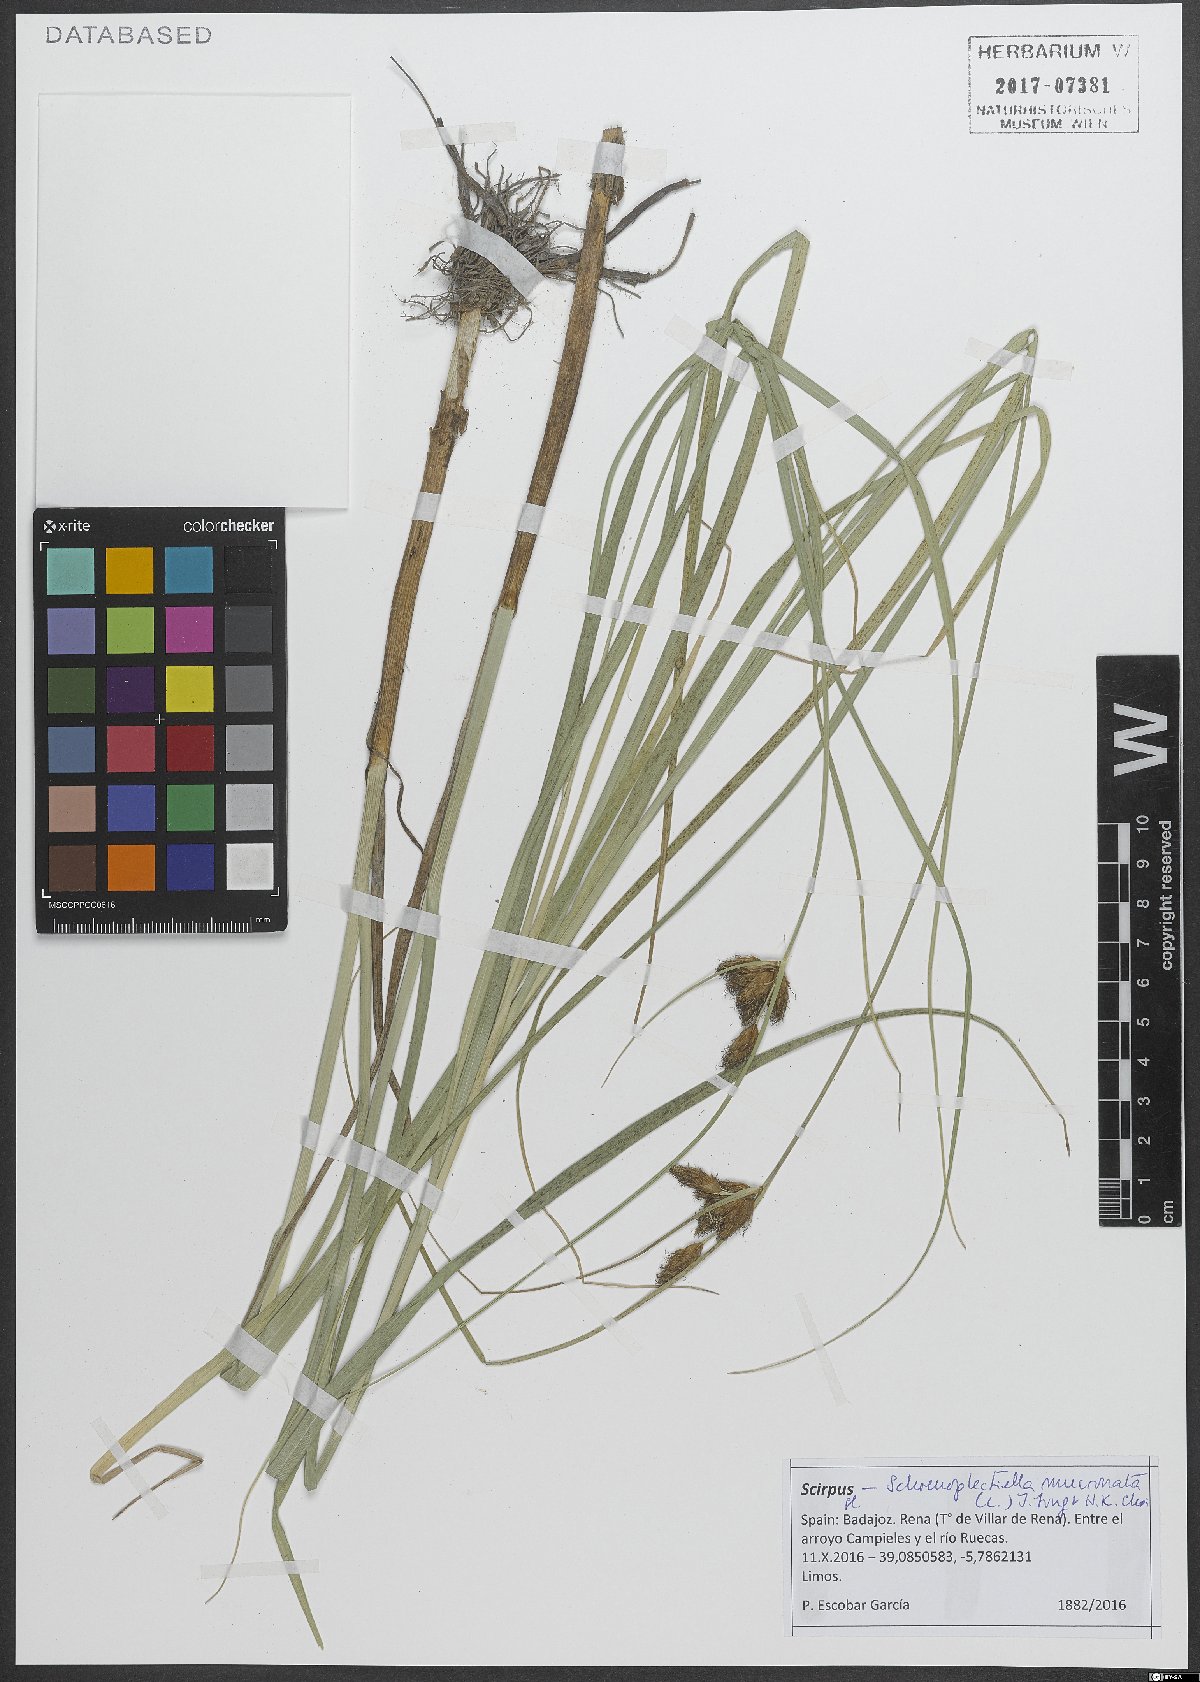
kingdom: Plantae
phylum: Tracheophyta
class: Liliopsida
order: Poales
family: Cyperaceae
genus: Schoenoplectiella
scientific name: Schoenoplectiella mucronata
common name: Bog bulrush
